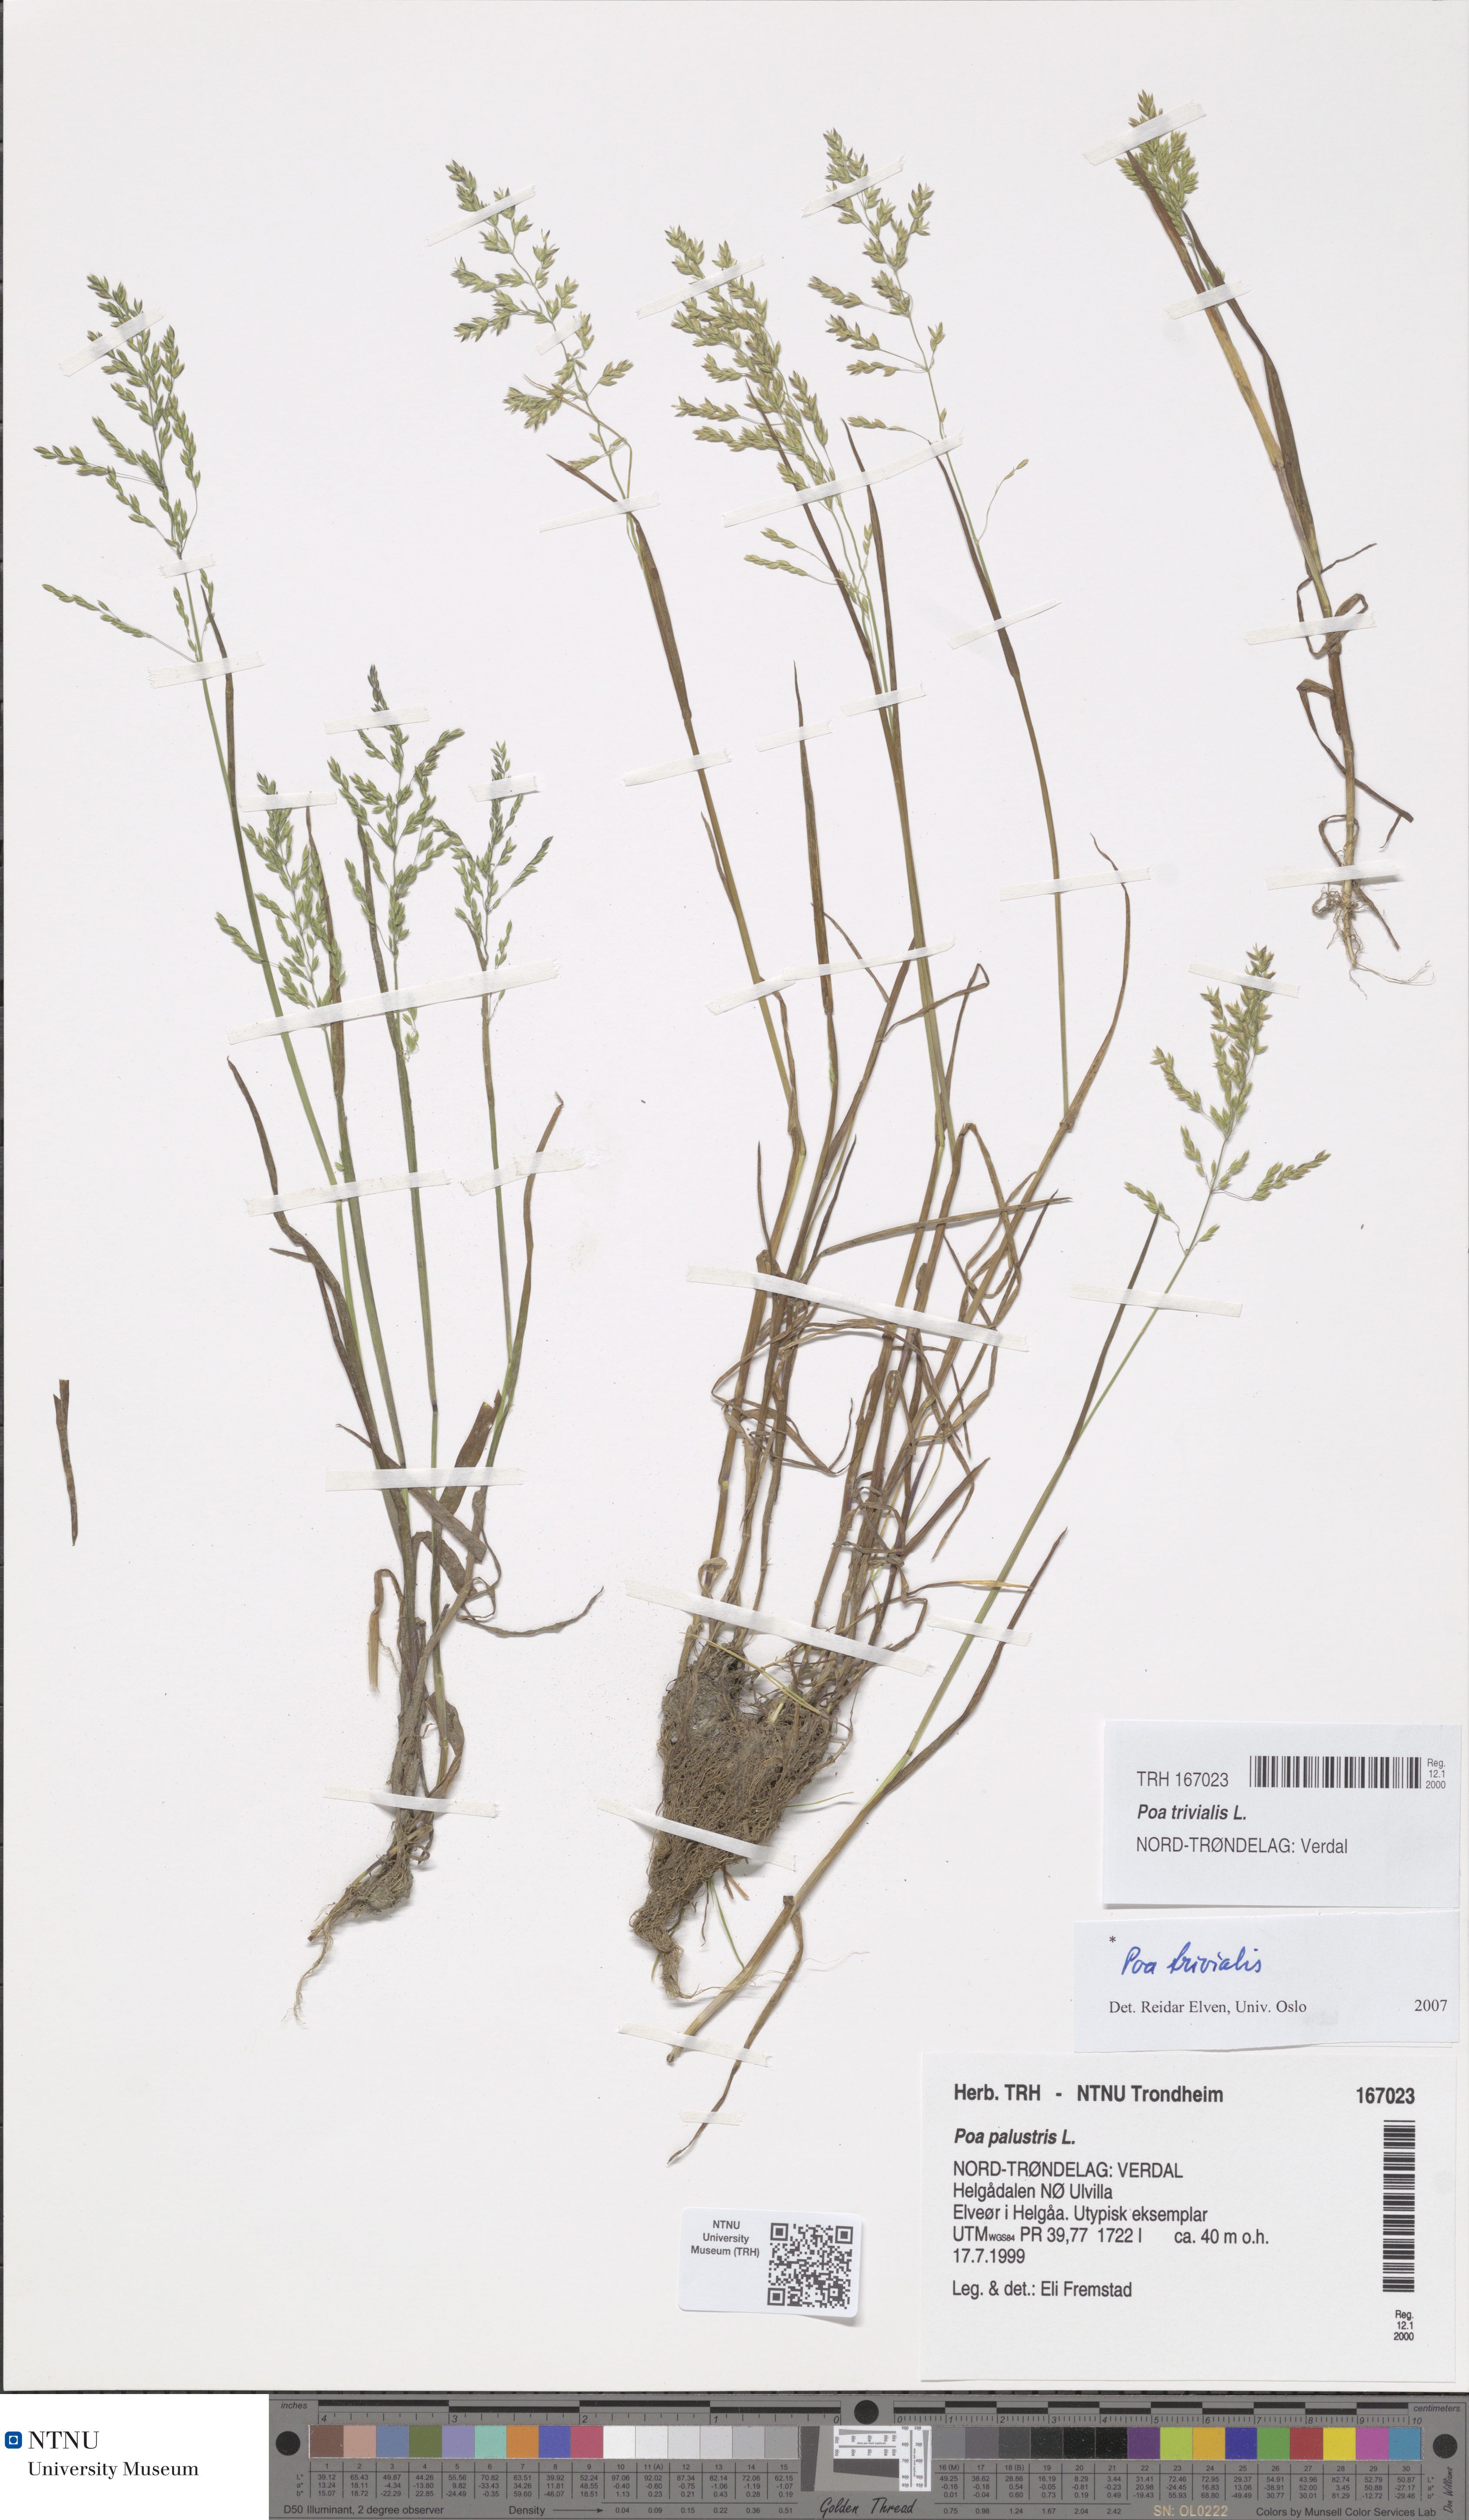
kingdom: Plantae
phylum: Tracheophyta
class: Liliopsida
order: Poales
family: Poaceae
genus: Poa
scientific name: Poa trivialis
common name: Rough bluegrass
